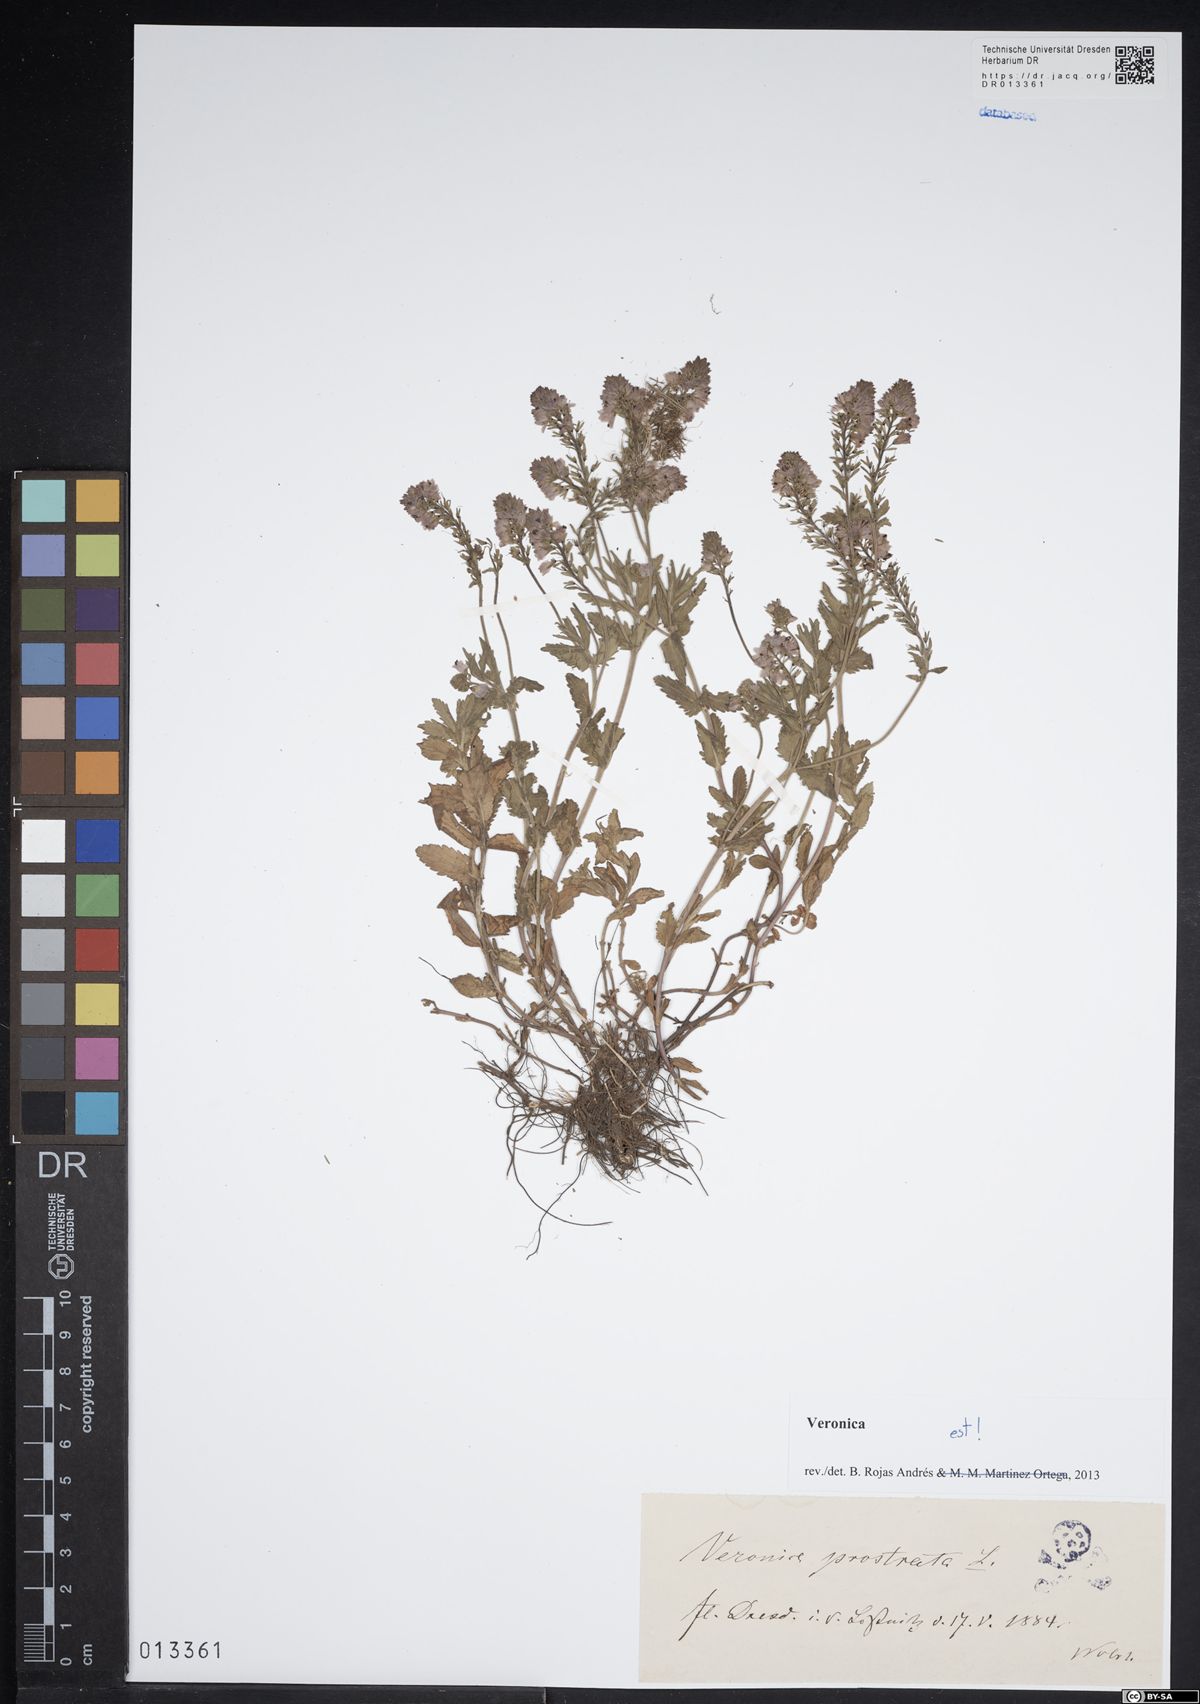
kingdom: Plantae
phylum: Tracheophyta
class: Magnoliopsida
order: Lamiales
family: Plantaginaceae
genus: Veronica
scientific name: Veronica prostrata
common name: Prostrate speedwell
